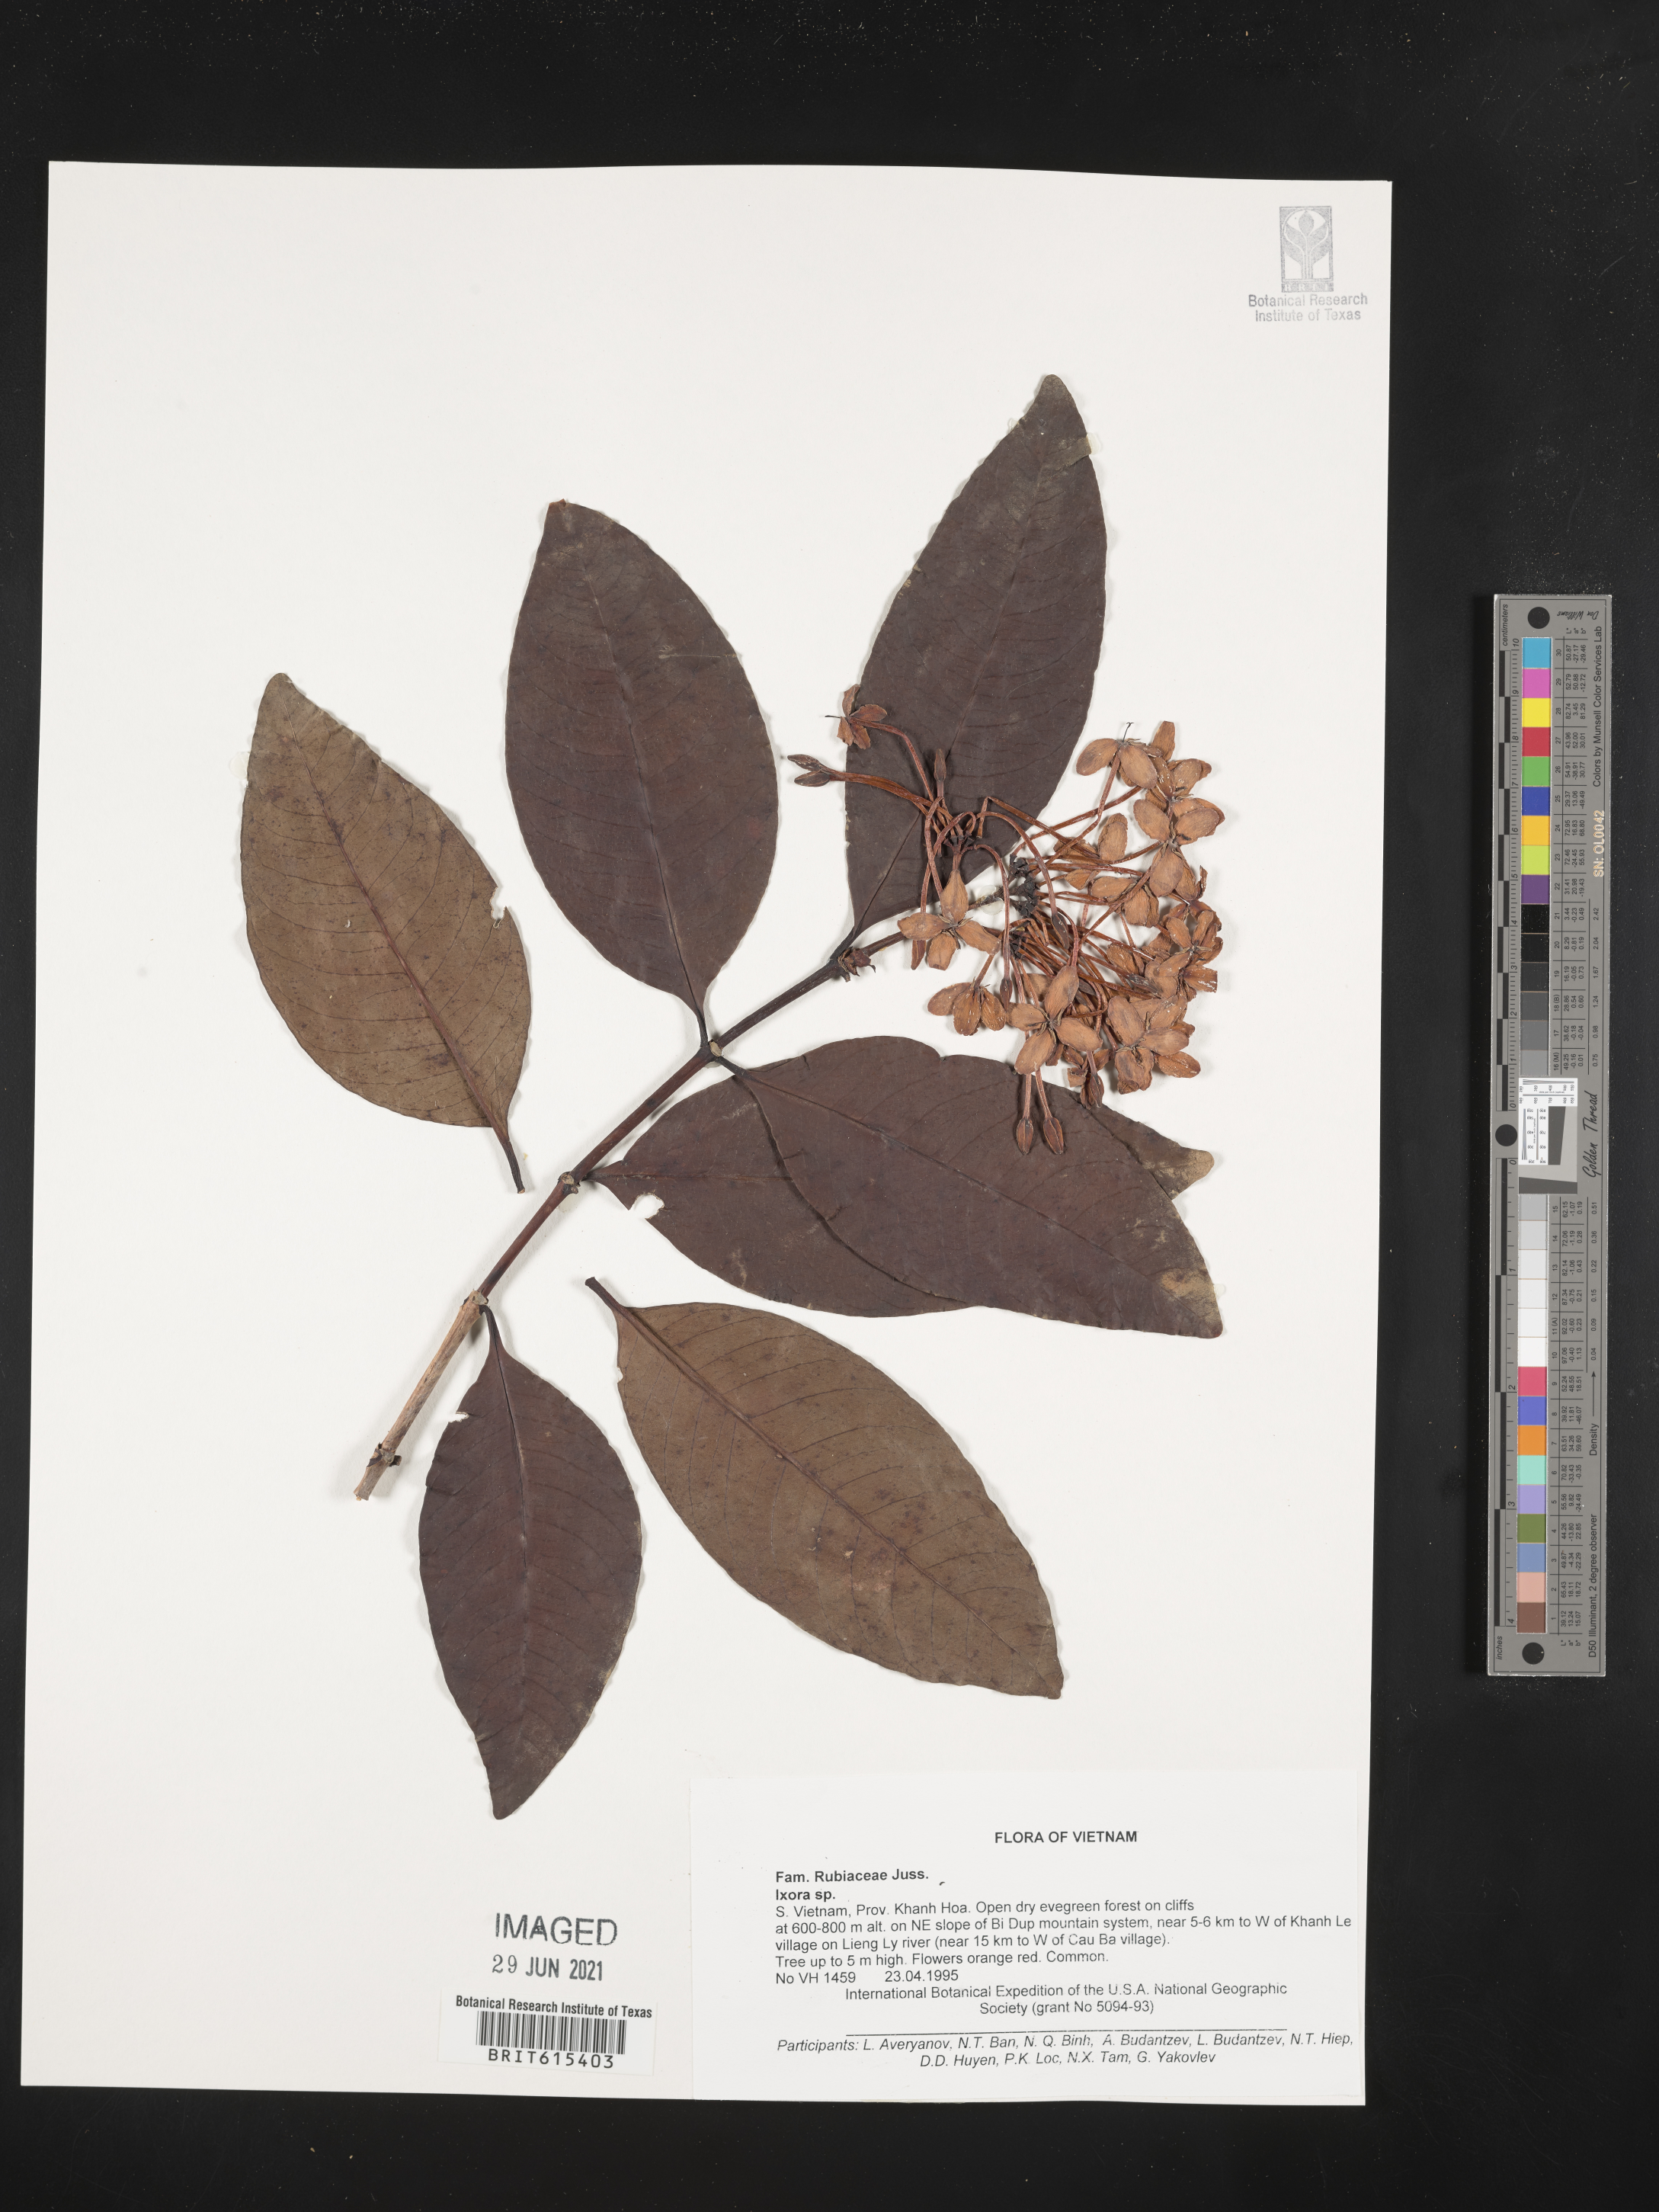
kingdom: Plantae
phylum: Tracheophyta
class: Magnoliopsida
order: Gentianales
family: Rubiaceae
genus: Ixora
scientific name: Ixora
